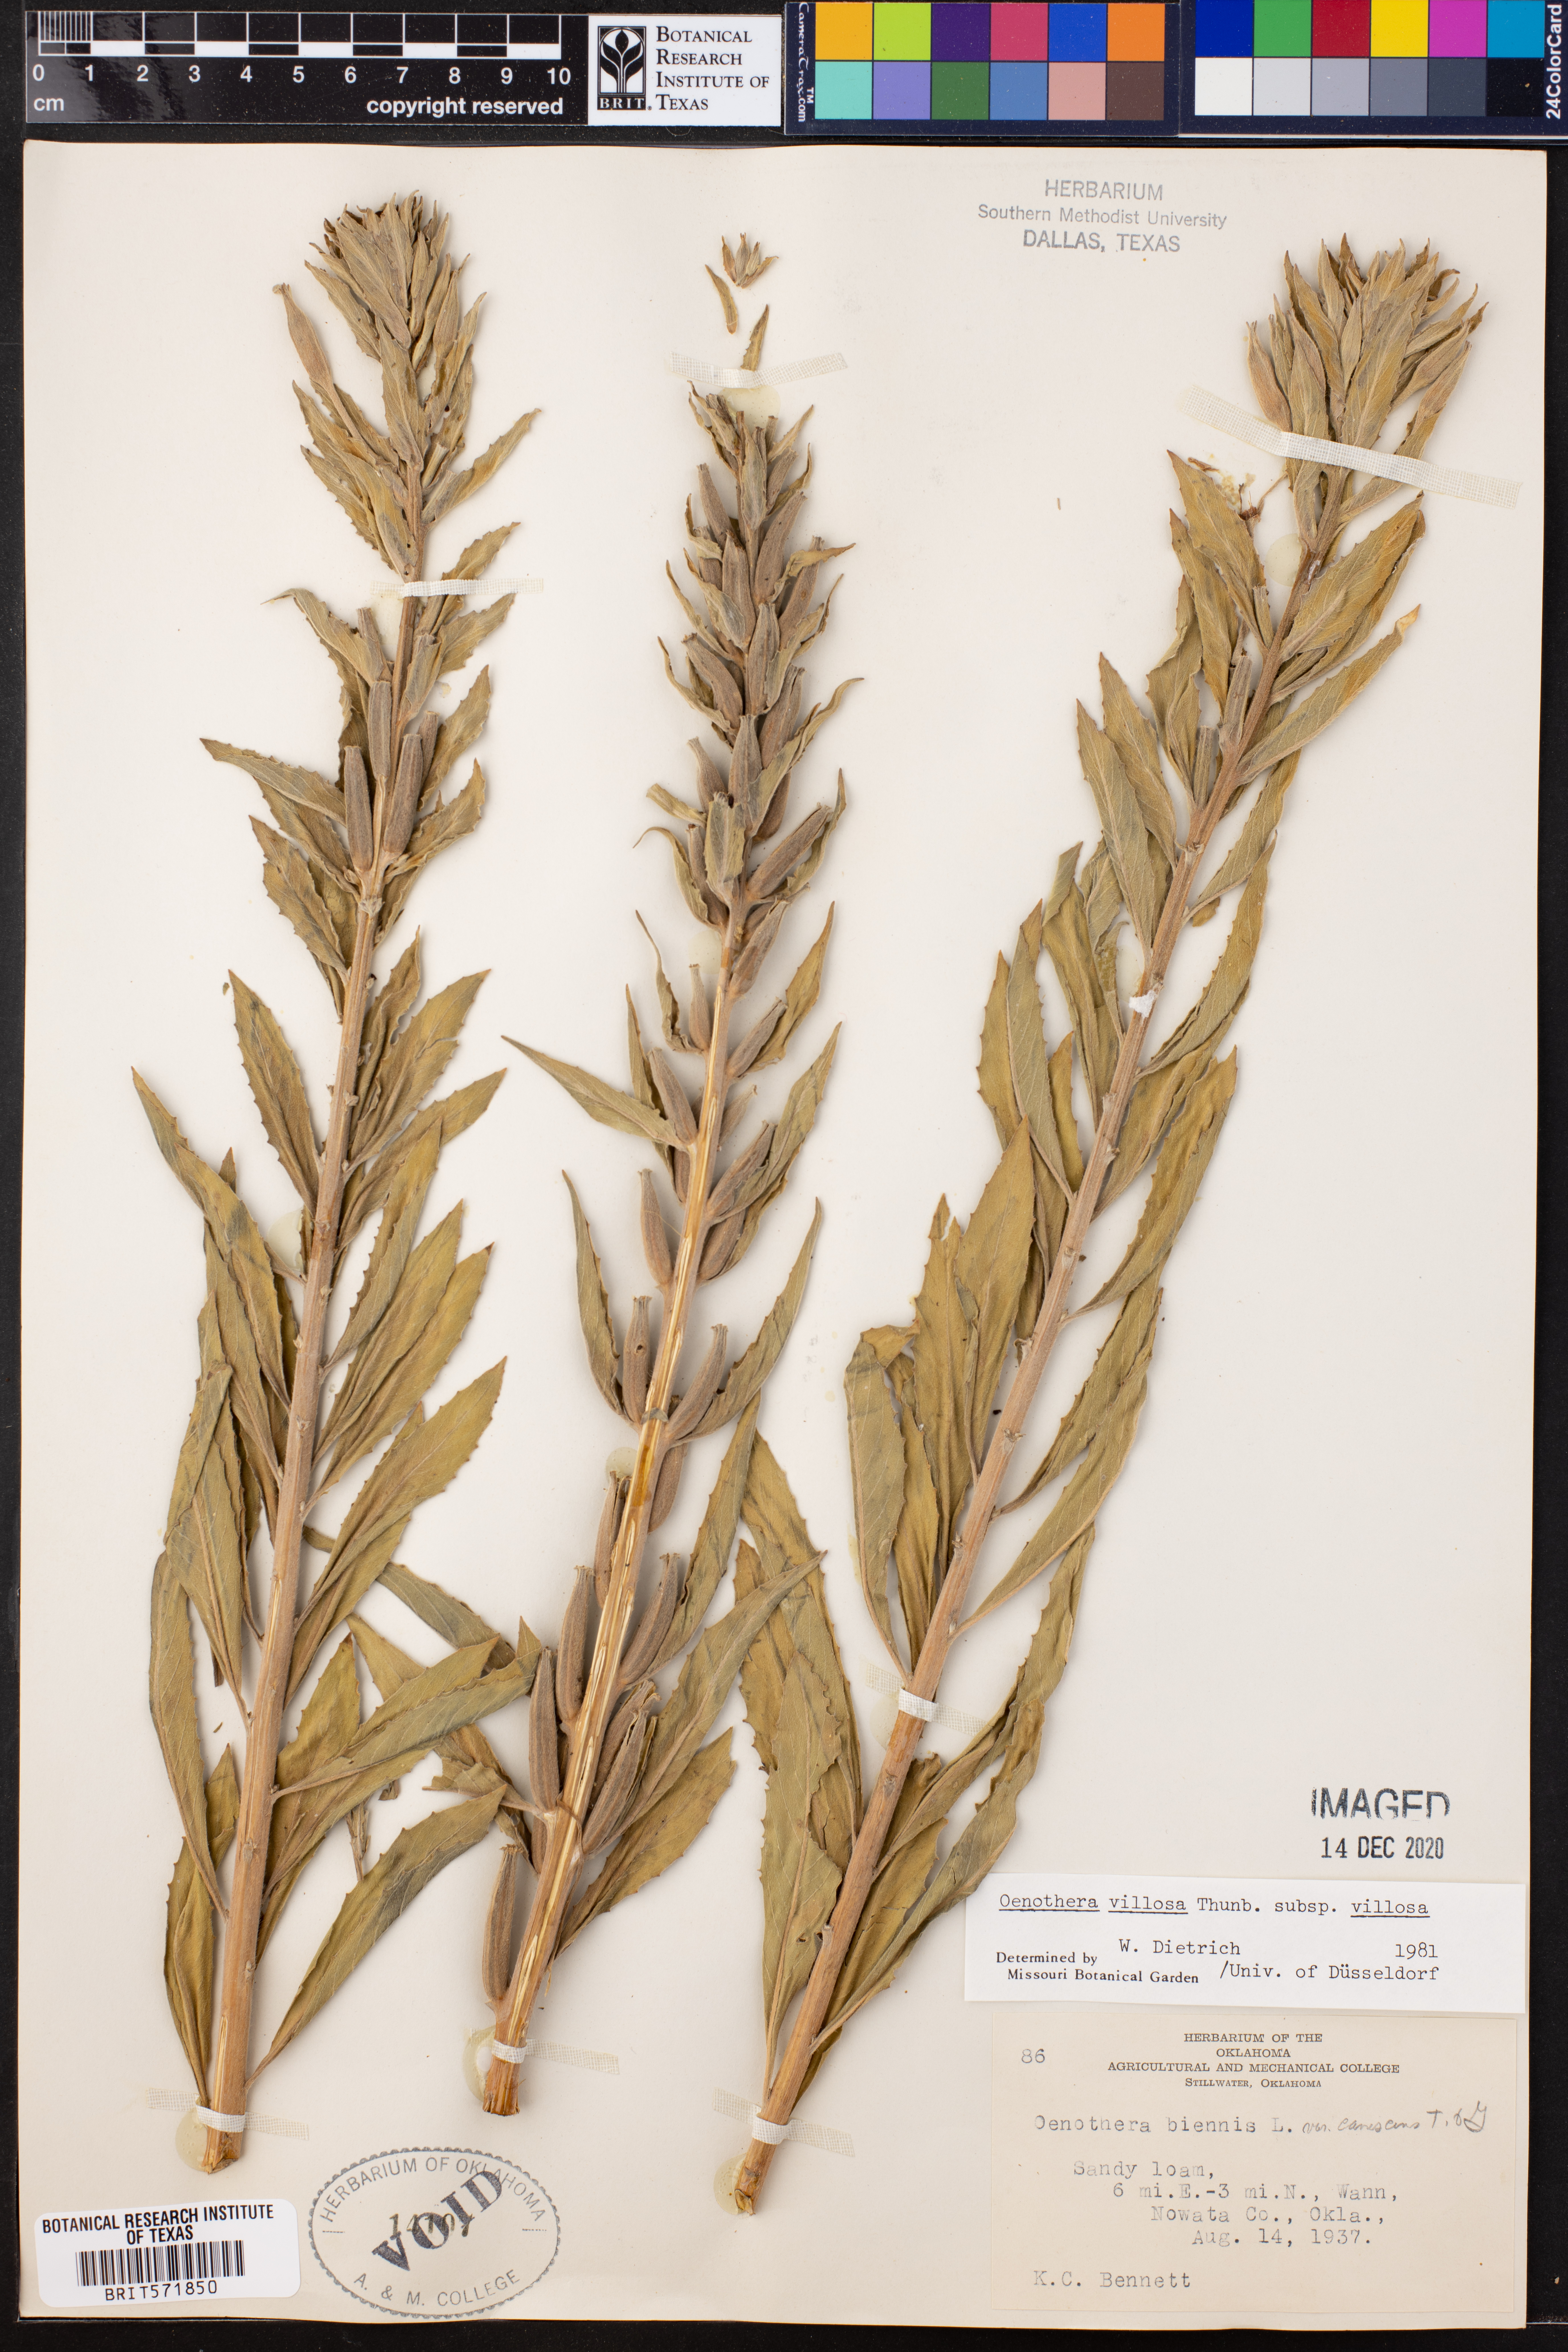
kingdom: Plantae
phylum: Tracheophyta
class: Magnoliopsida
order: Myrtales
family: Onagraceae
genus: Oenothera
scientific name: Oenothera villosa
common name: Hairy evening-primrose
